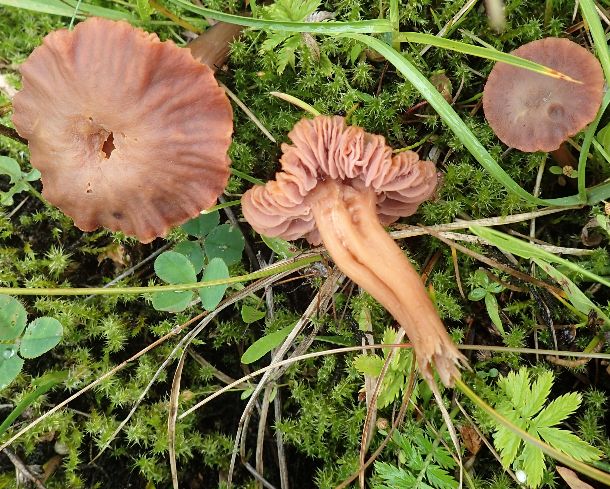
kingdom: Fungi
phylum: Basidiomycota
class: Agaricomycetes
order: Agaricales
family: Hydnangiaceae
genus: Laccaria
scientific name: Laccaria laccata
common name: rød ametysthat
